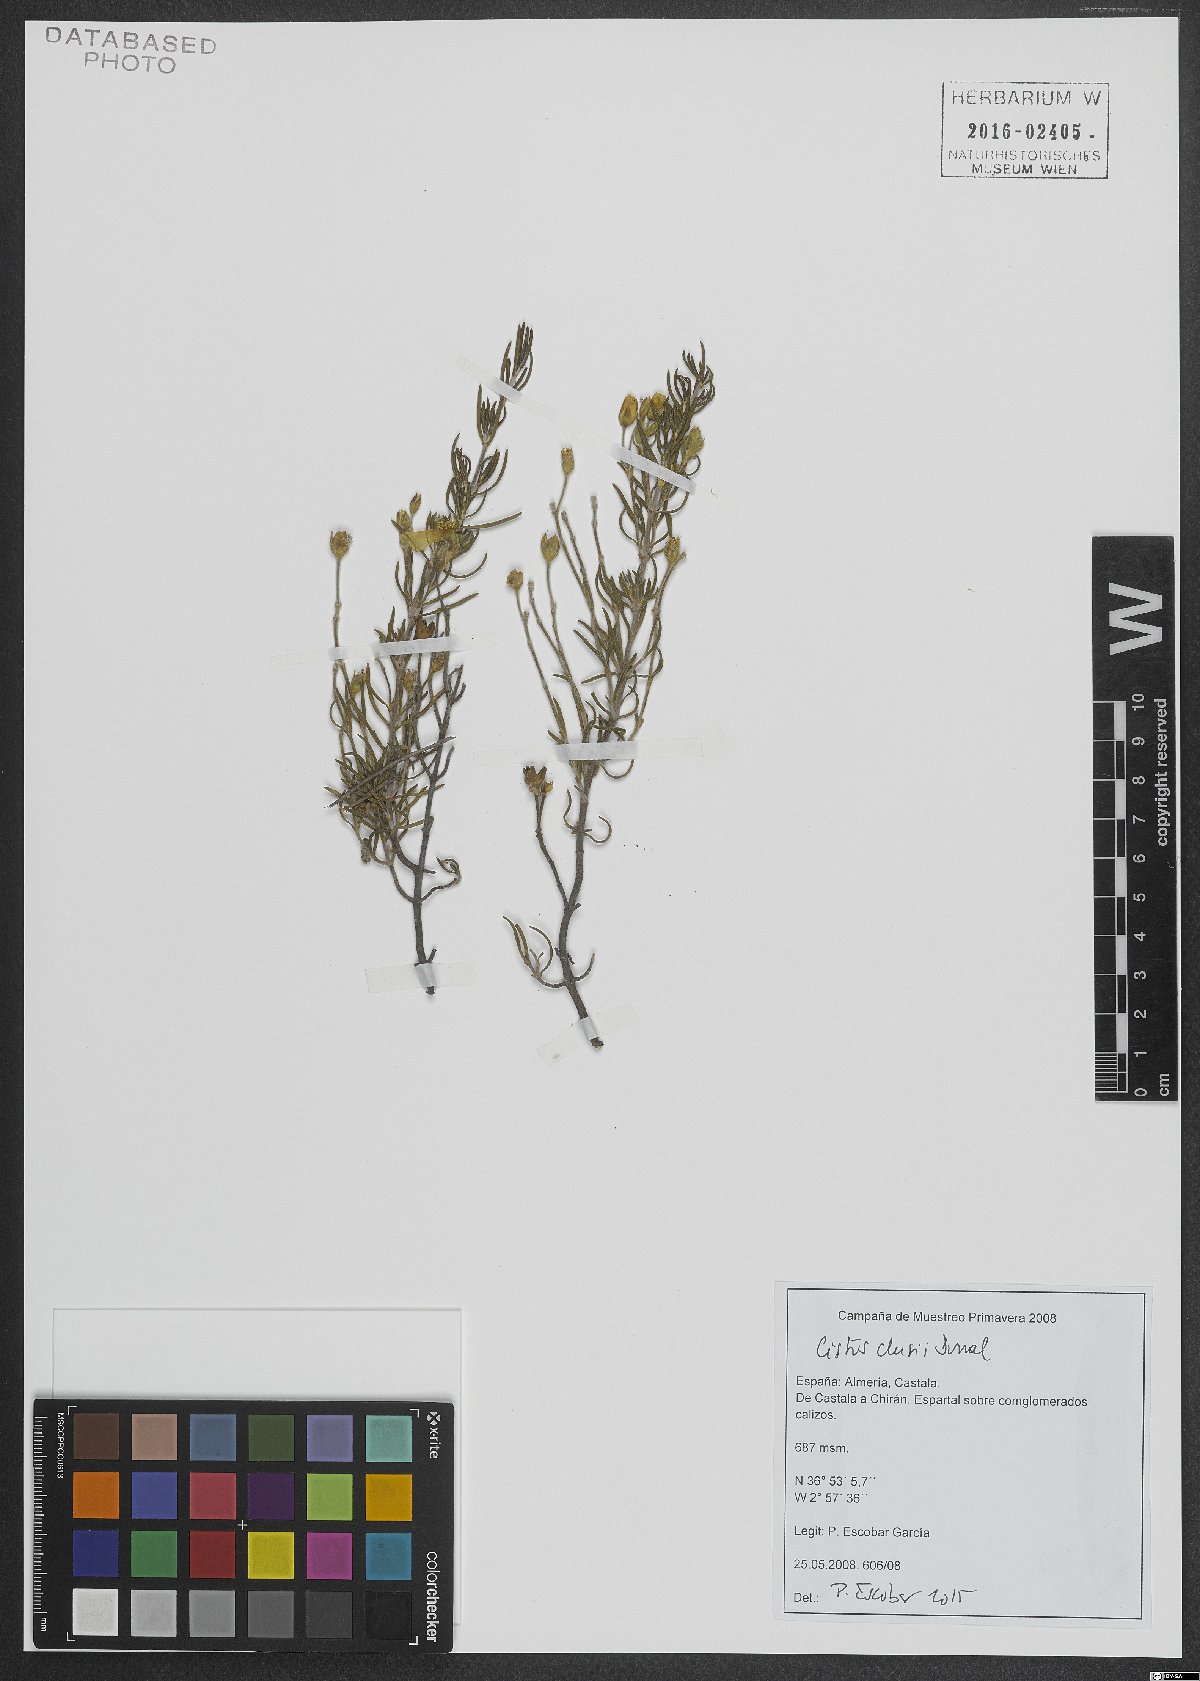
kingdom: Plantae
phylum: Tracheophyta
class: Magnoliopsida
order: Malvales
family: Cistaceae
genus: Cistus
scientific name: Cistus clusii
